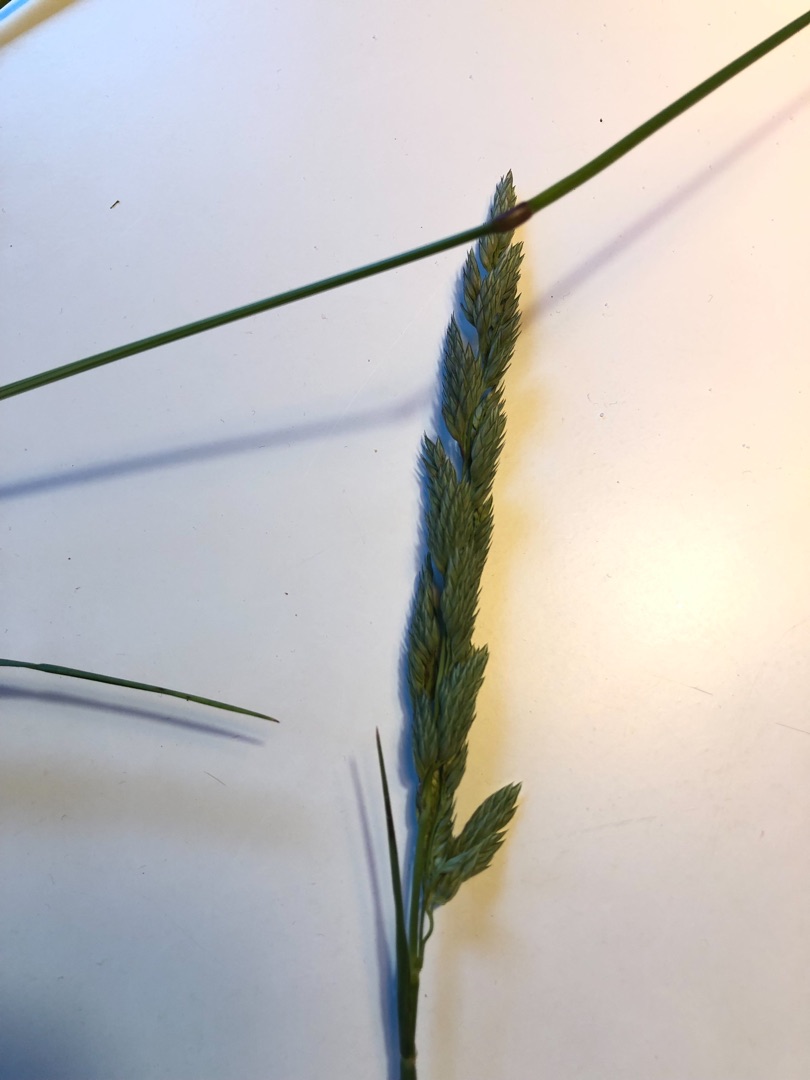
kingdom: Plantae
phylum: Tracheophyta
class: Liliopsida
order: Poales
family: Poaceae
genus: Phalaris
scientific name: Phalaris arundinacea
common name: Rørgræs
